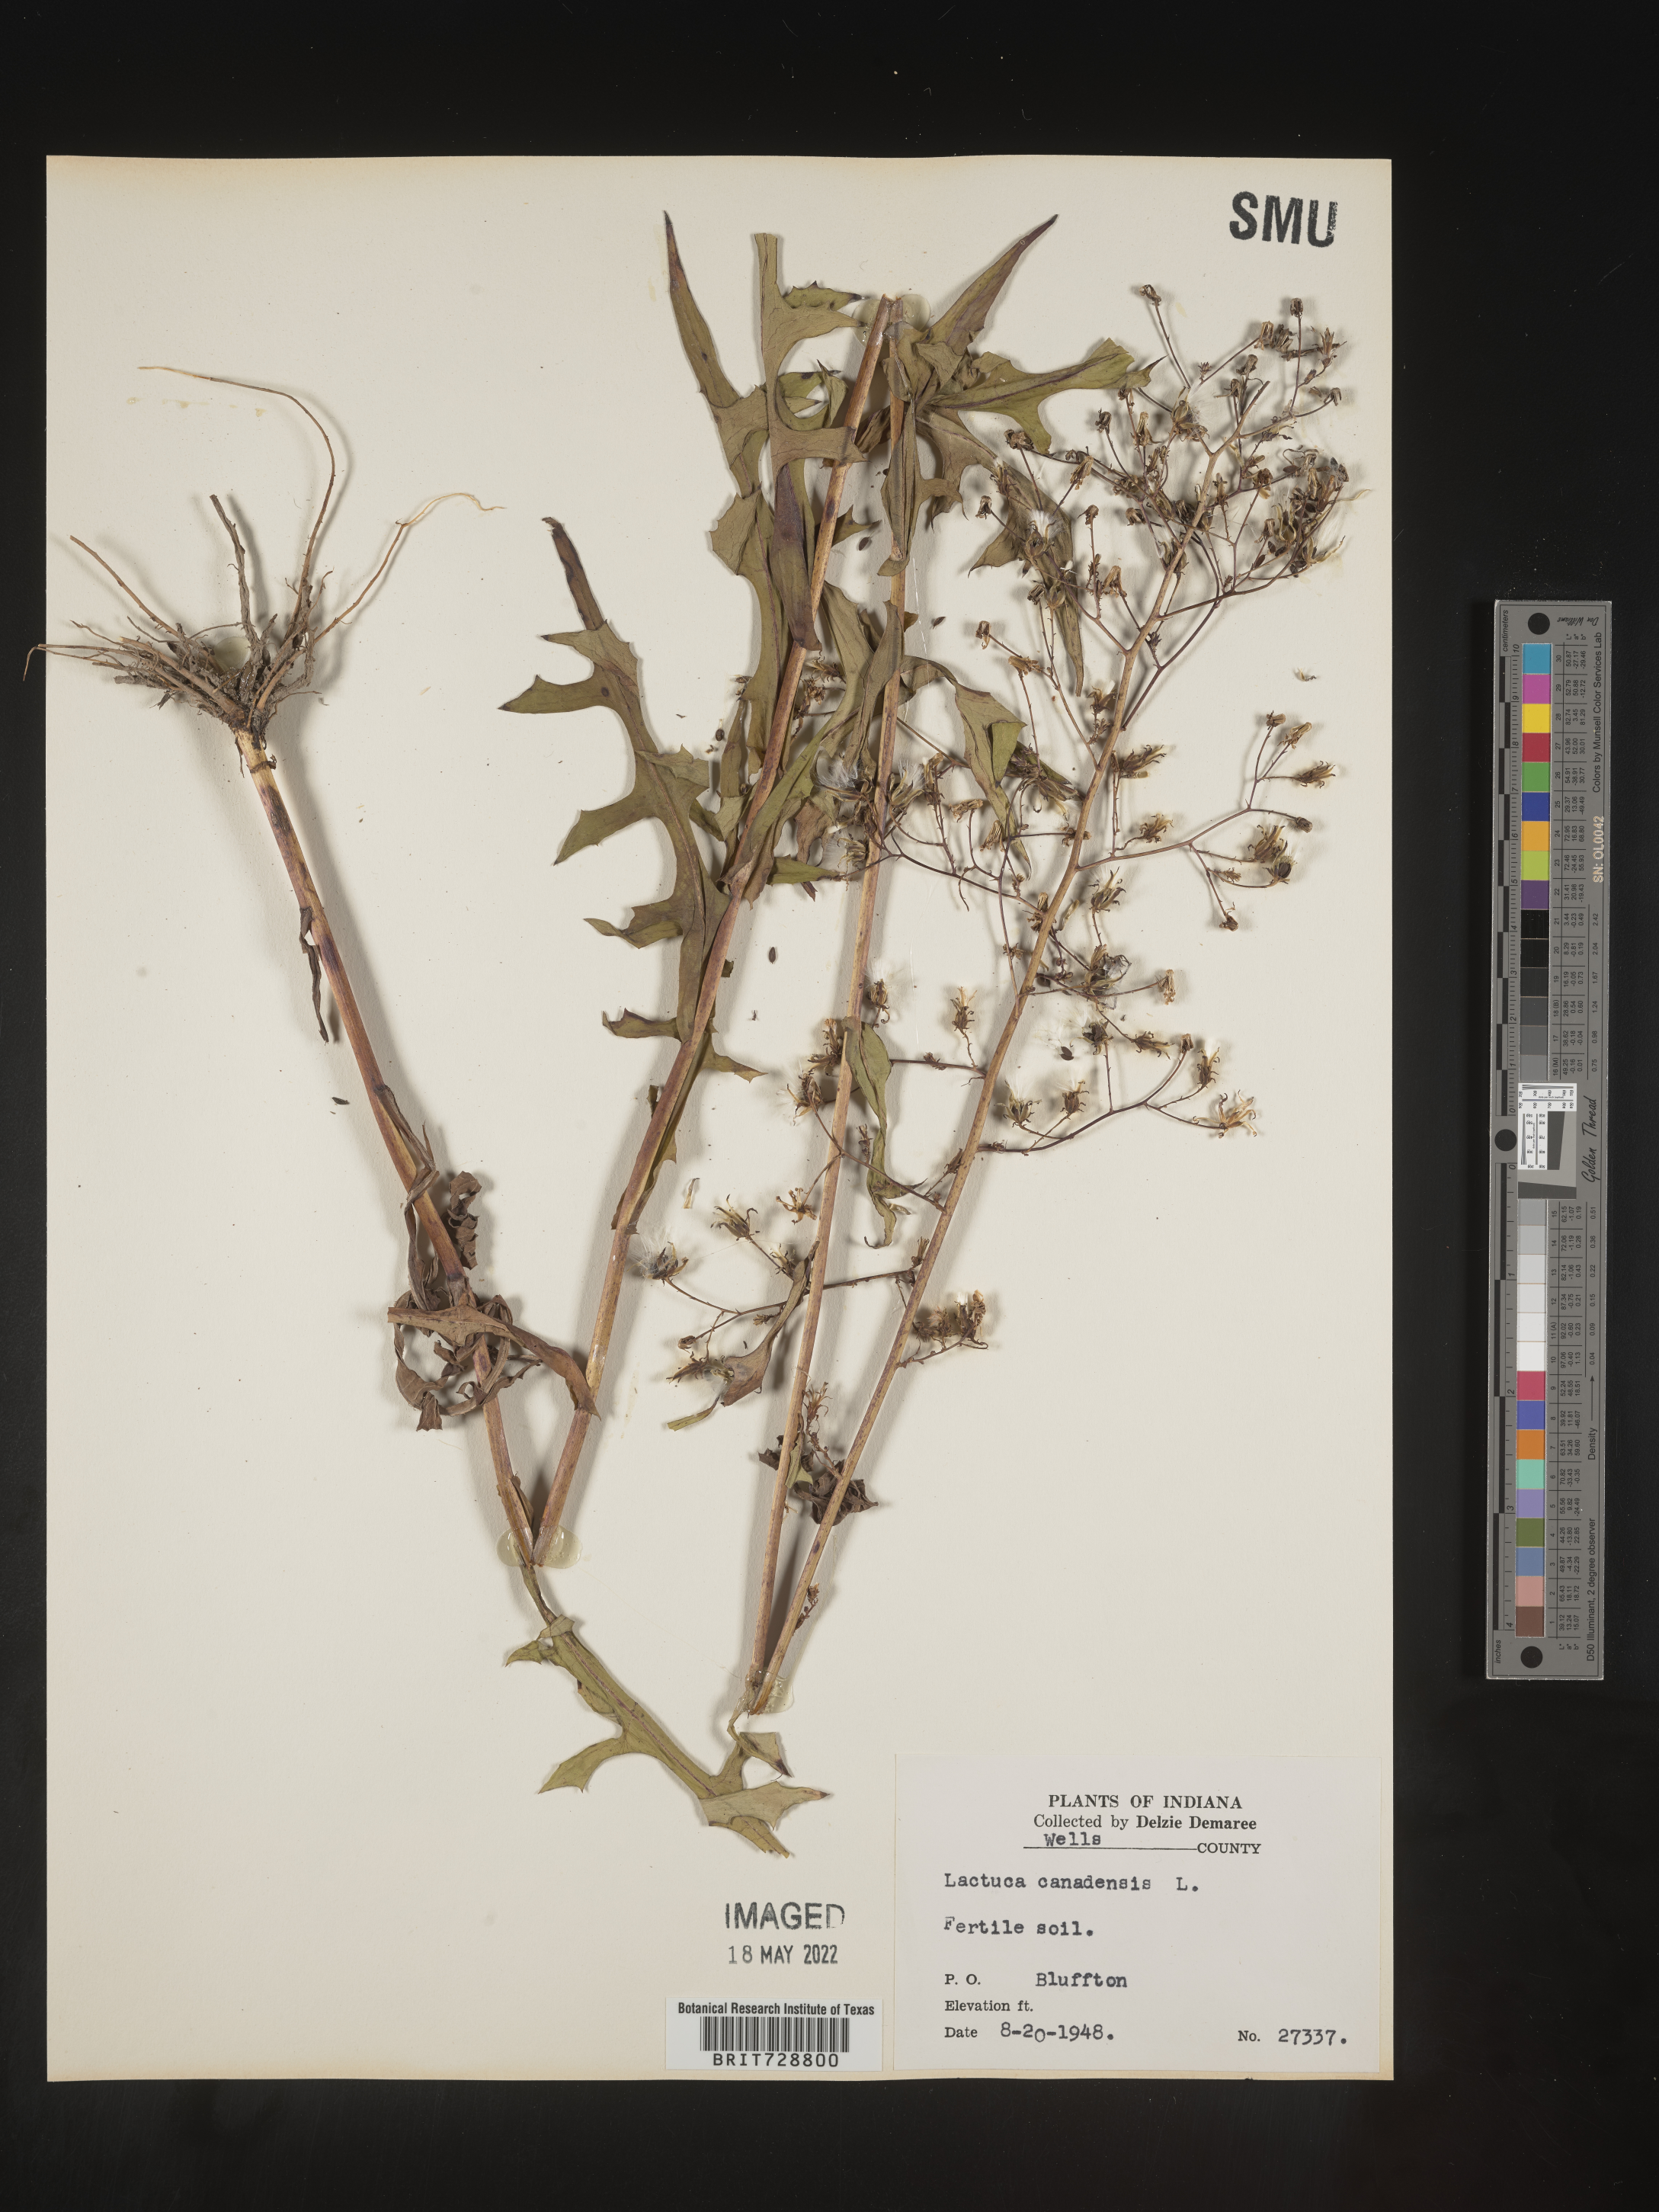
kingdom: Plantae
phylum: Tracheophyta
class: Magnoliopsida
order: Asterales
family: Asteraceae
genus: Lactuca
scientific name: Lactuca canadensis
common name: Canada lettuce
